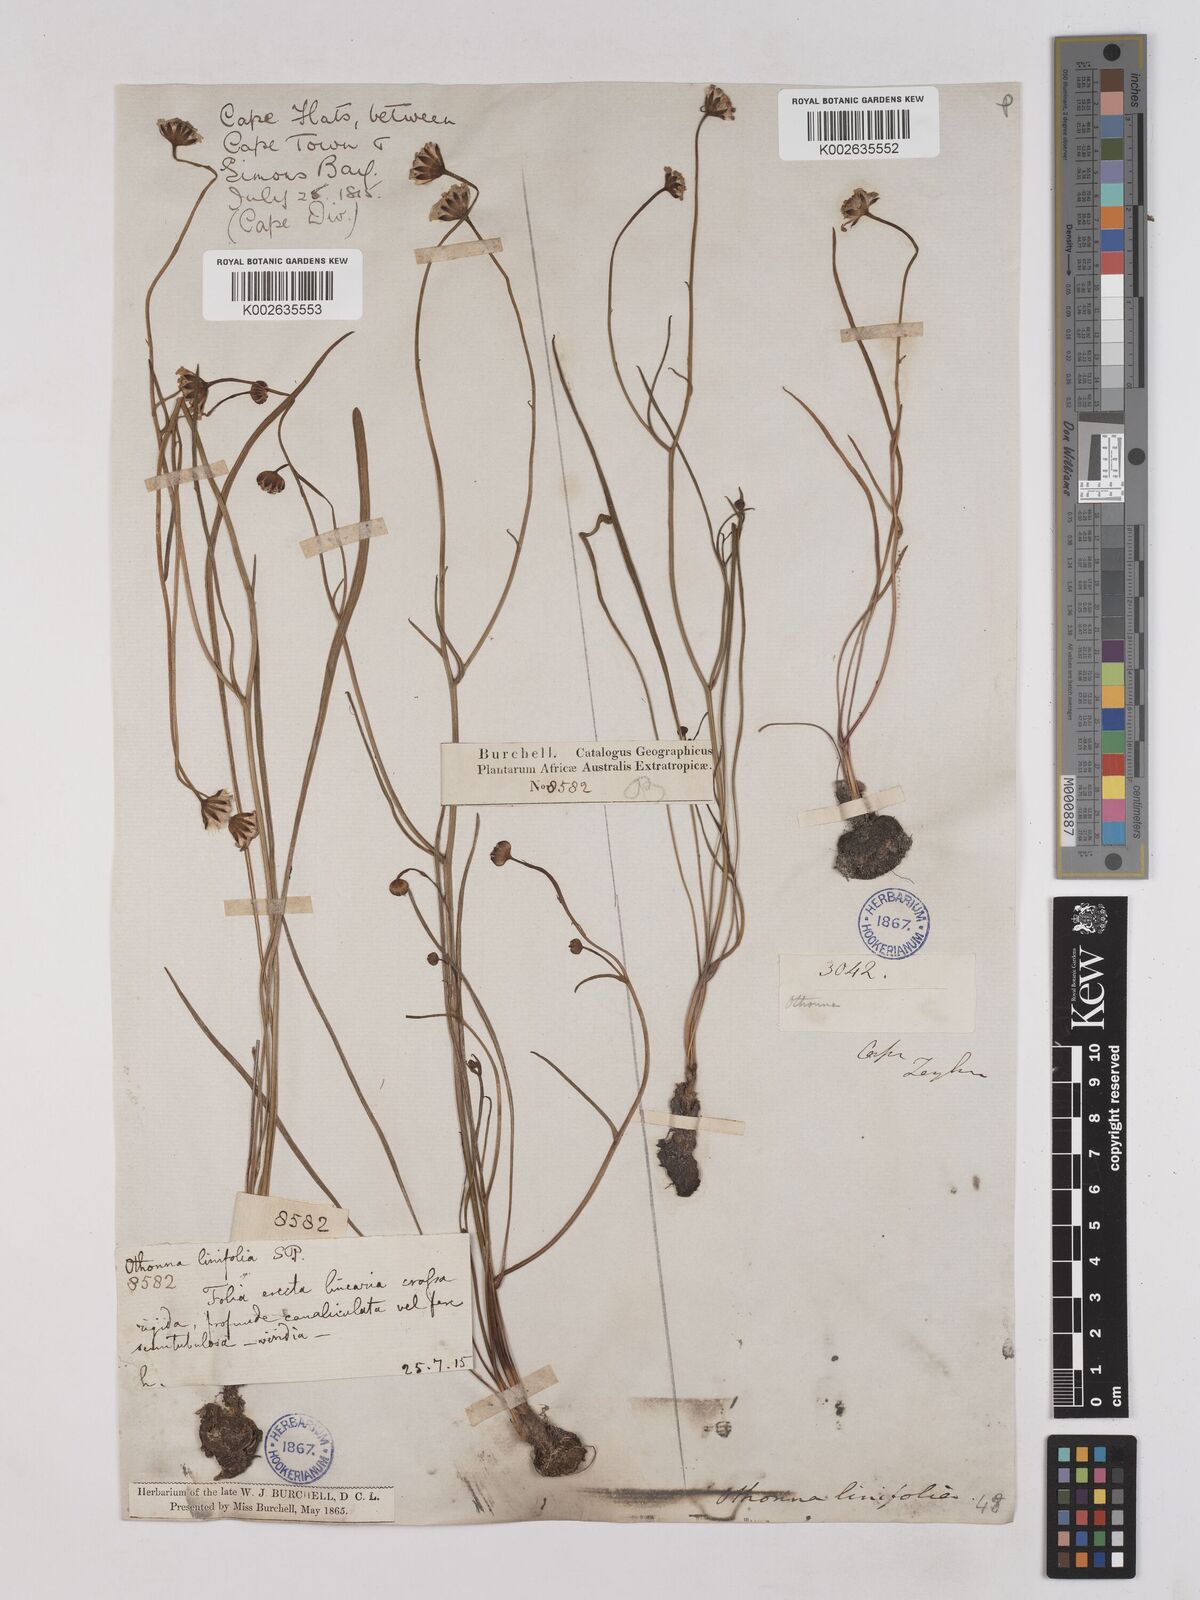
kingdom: Plantae
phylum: Tracheophyta
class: Magnoliopsida
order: Asterales
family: Asteraceae
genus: Othonna
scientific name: Othonna stenophylla
